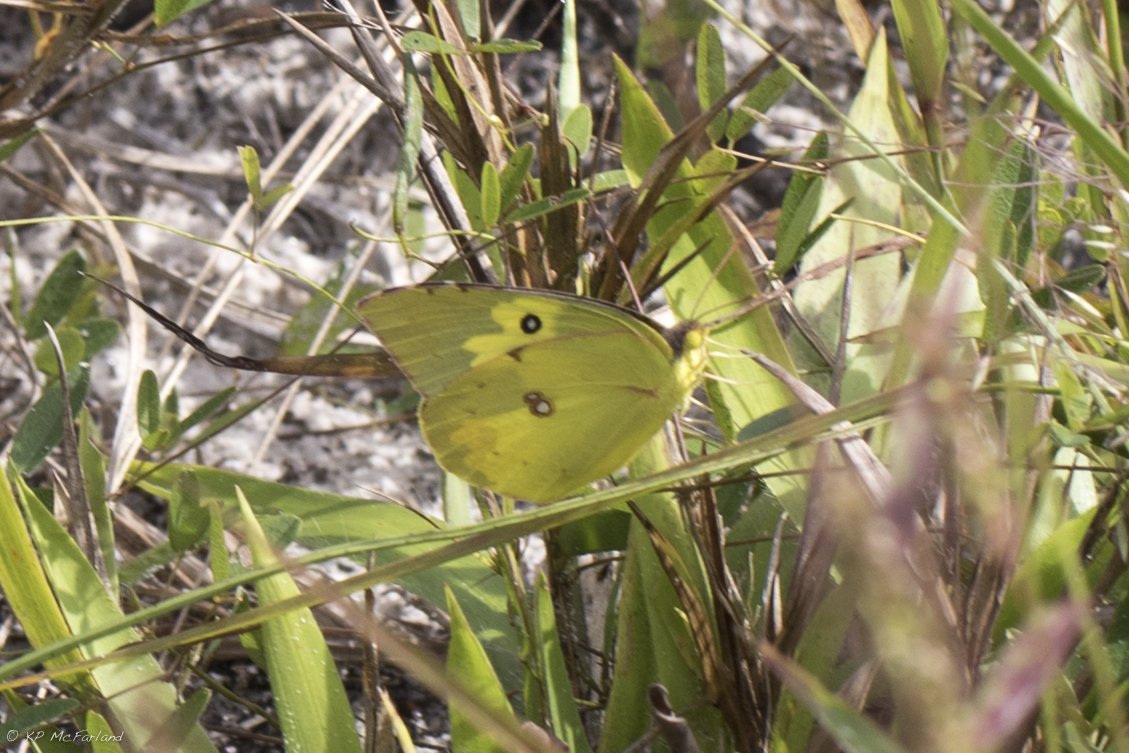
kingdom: Animalia
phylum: Arthropoda
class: Insecta
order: Lepidoptera
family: Pieridae
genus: Zerene
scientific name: Zerene cesonia
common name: Southern Dogface
